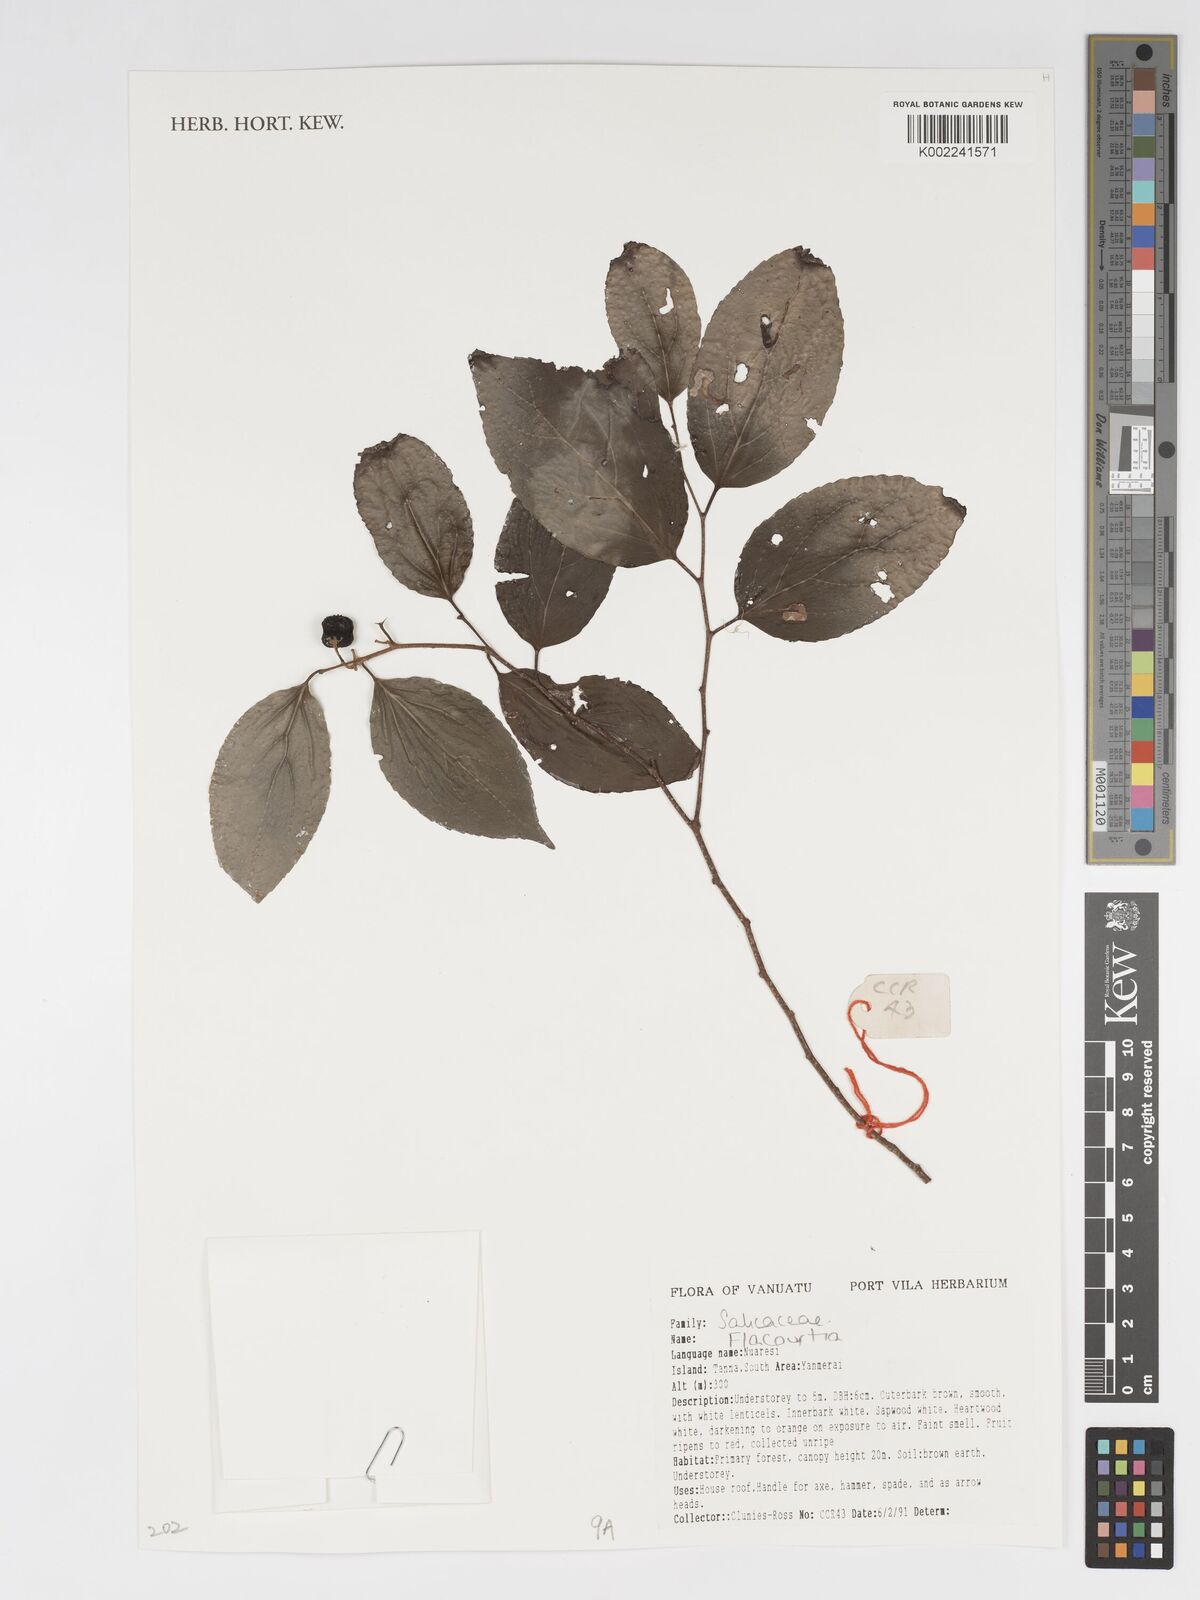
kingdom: Plantae
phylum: Tracheophyta
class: Magnoliopsida
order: Malpighiales
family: Salicaceae
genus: Flacourtia
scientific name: Flacourtia
